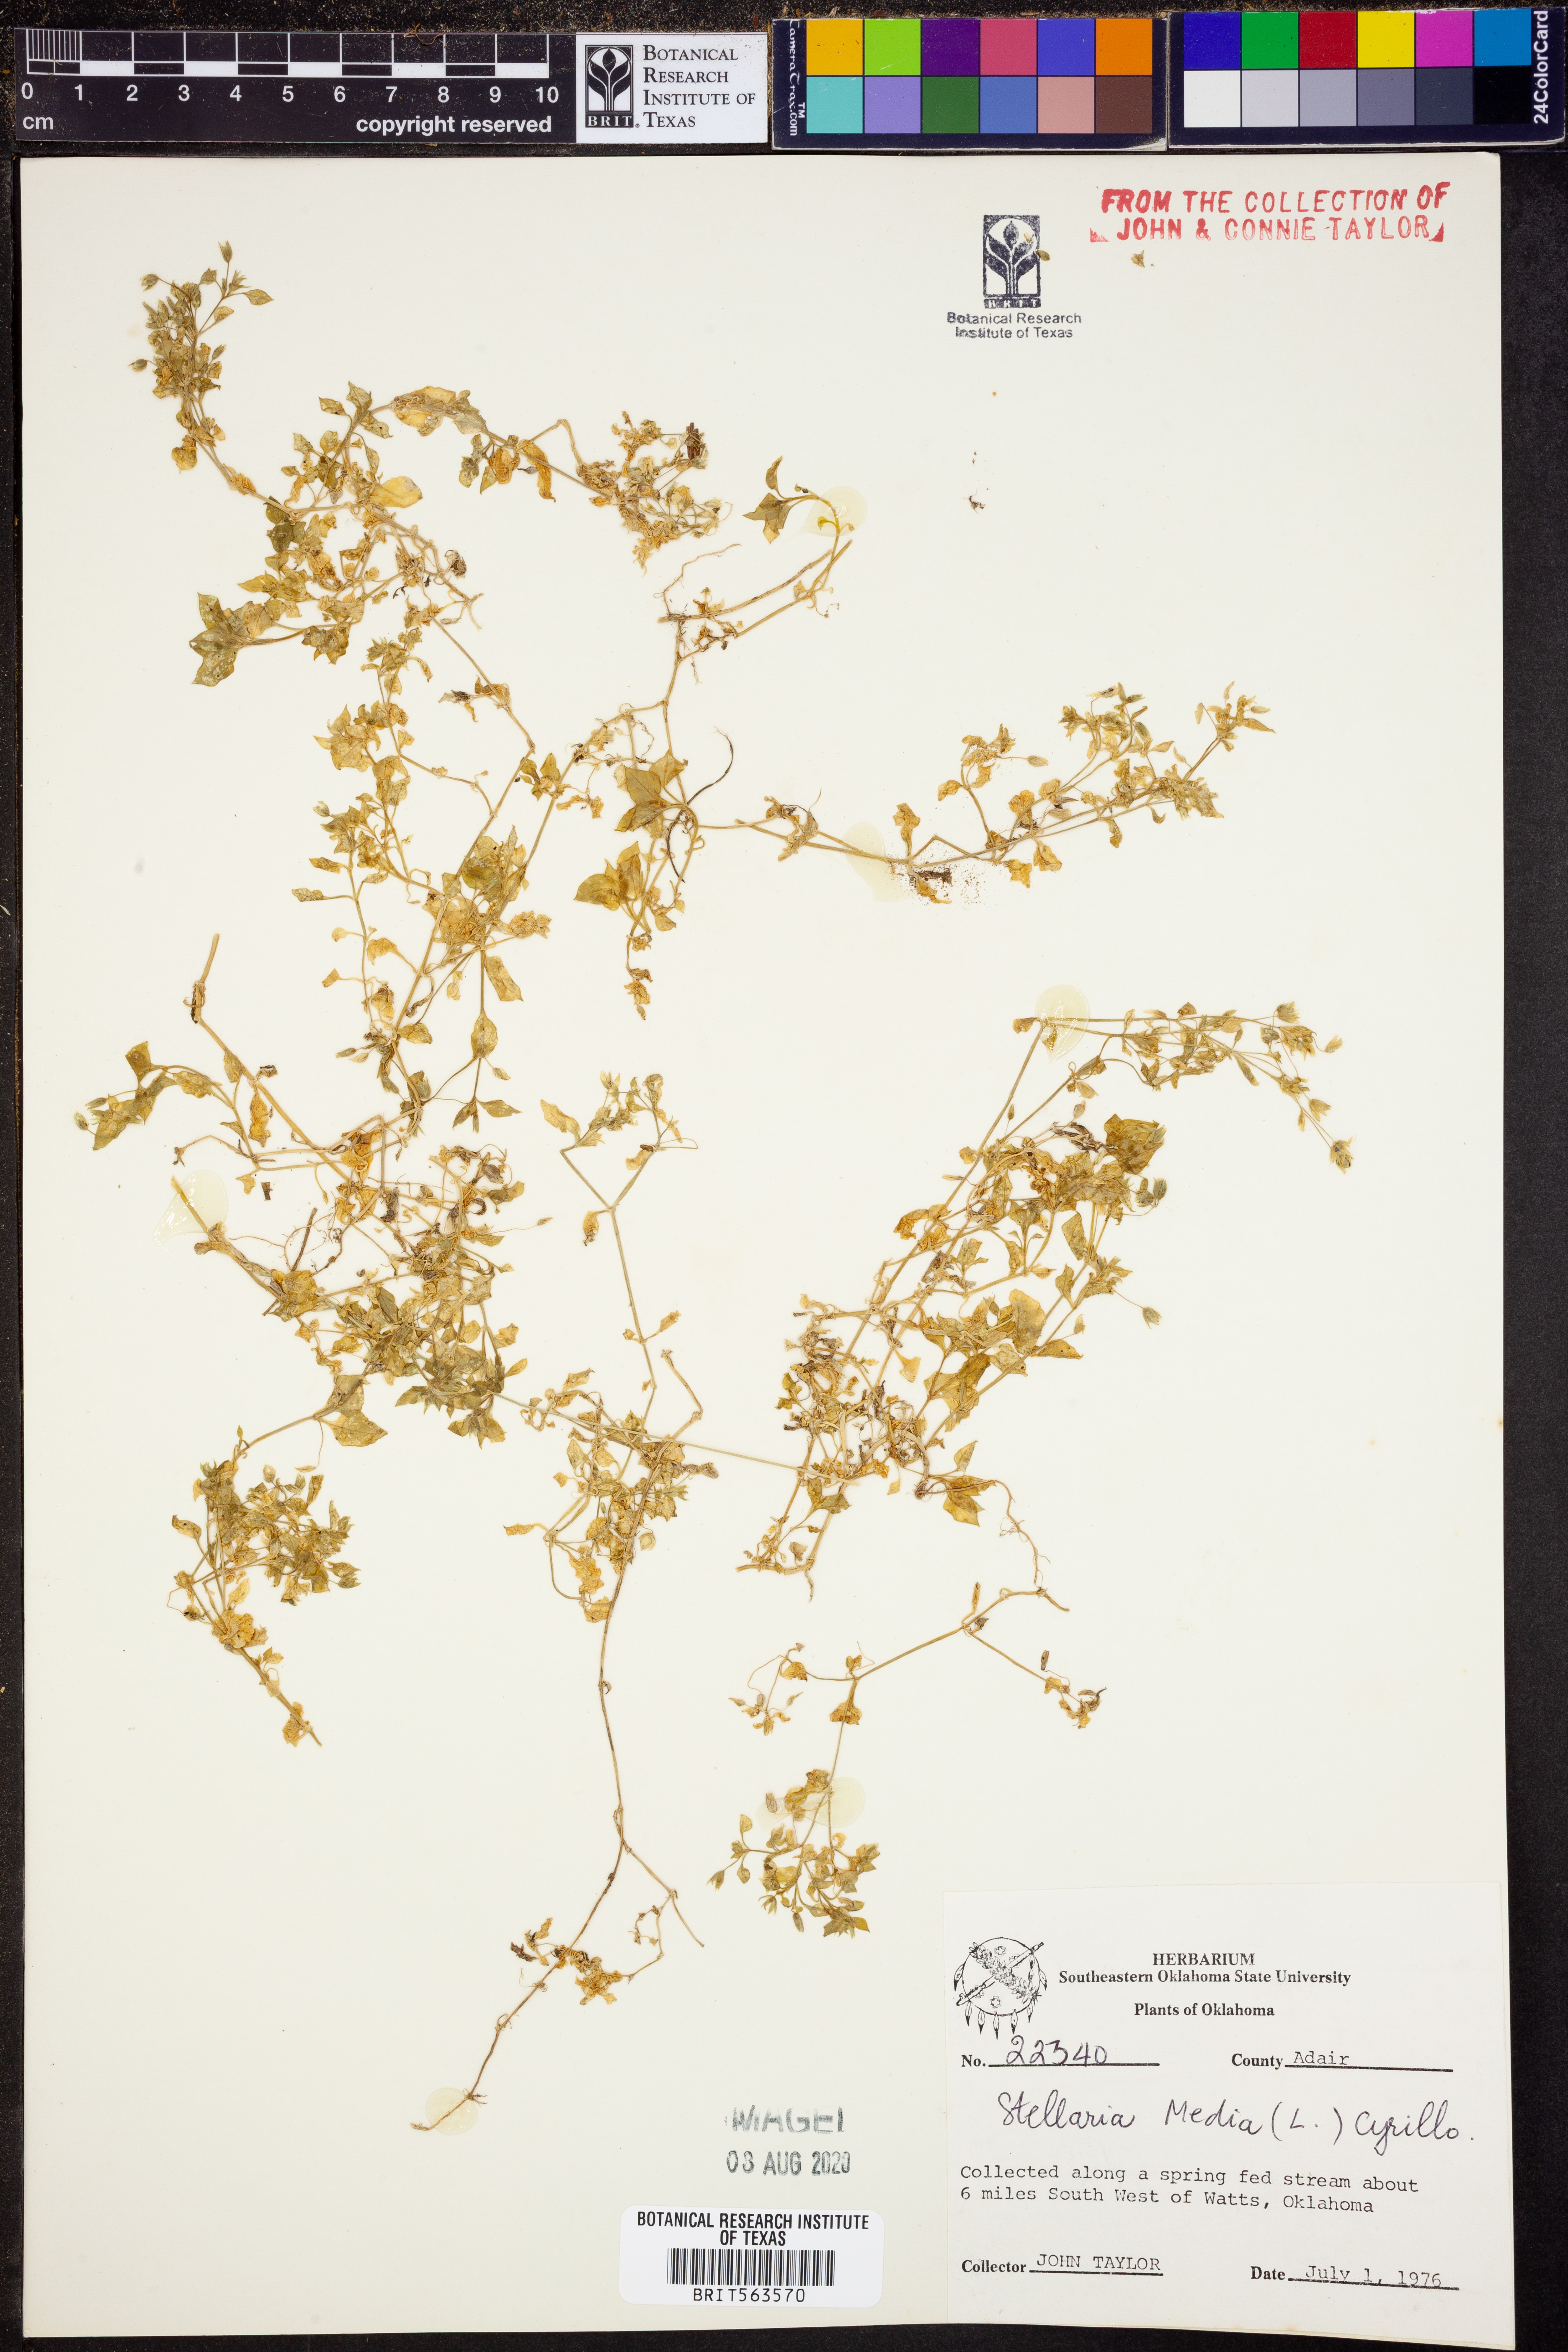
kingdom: Plantae
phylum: Tracheophyta
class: Magnoliopsida
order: Caryophyllales
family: Caryophyllaceae
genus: Stellaria
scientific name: Stellaria media
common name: Common chickweed
